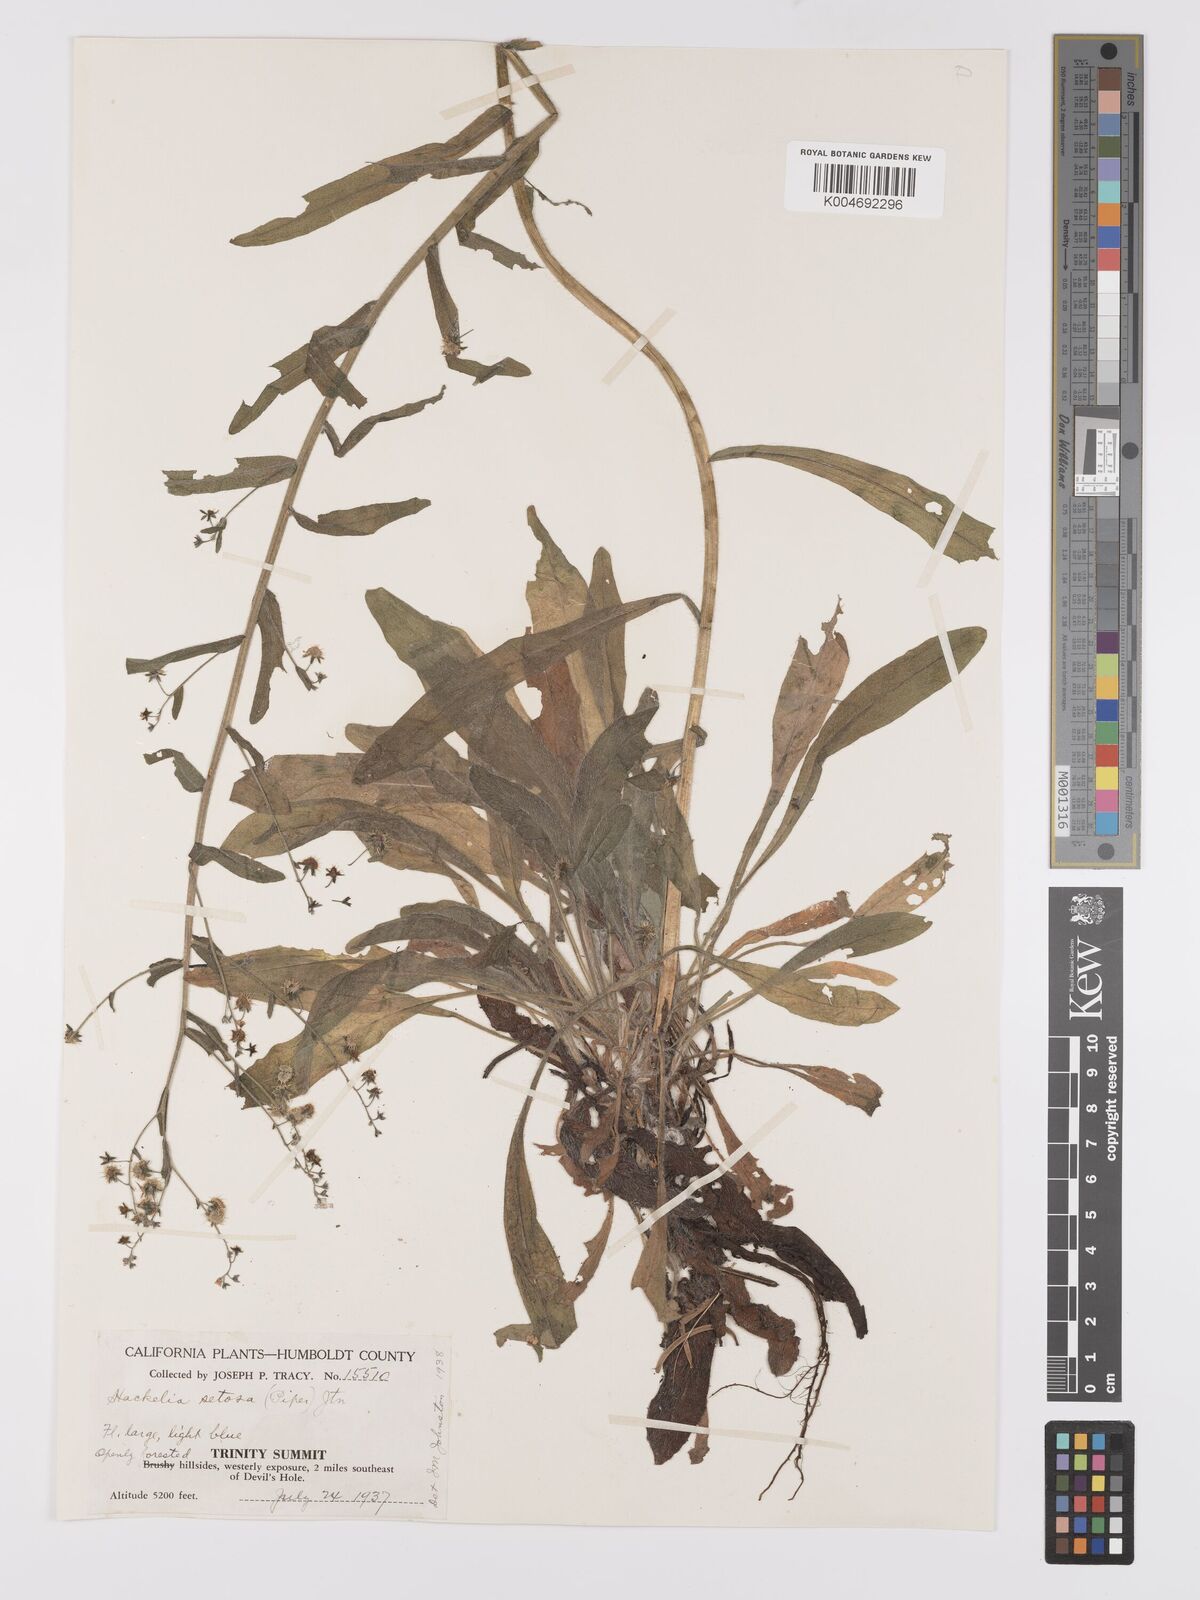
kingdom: Plantae
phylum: Tracheophyta
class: Magnoliopsida
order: Boraginales
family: Boraginaceae
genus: Hackelia
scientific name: Hackelia setosa
